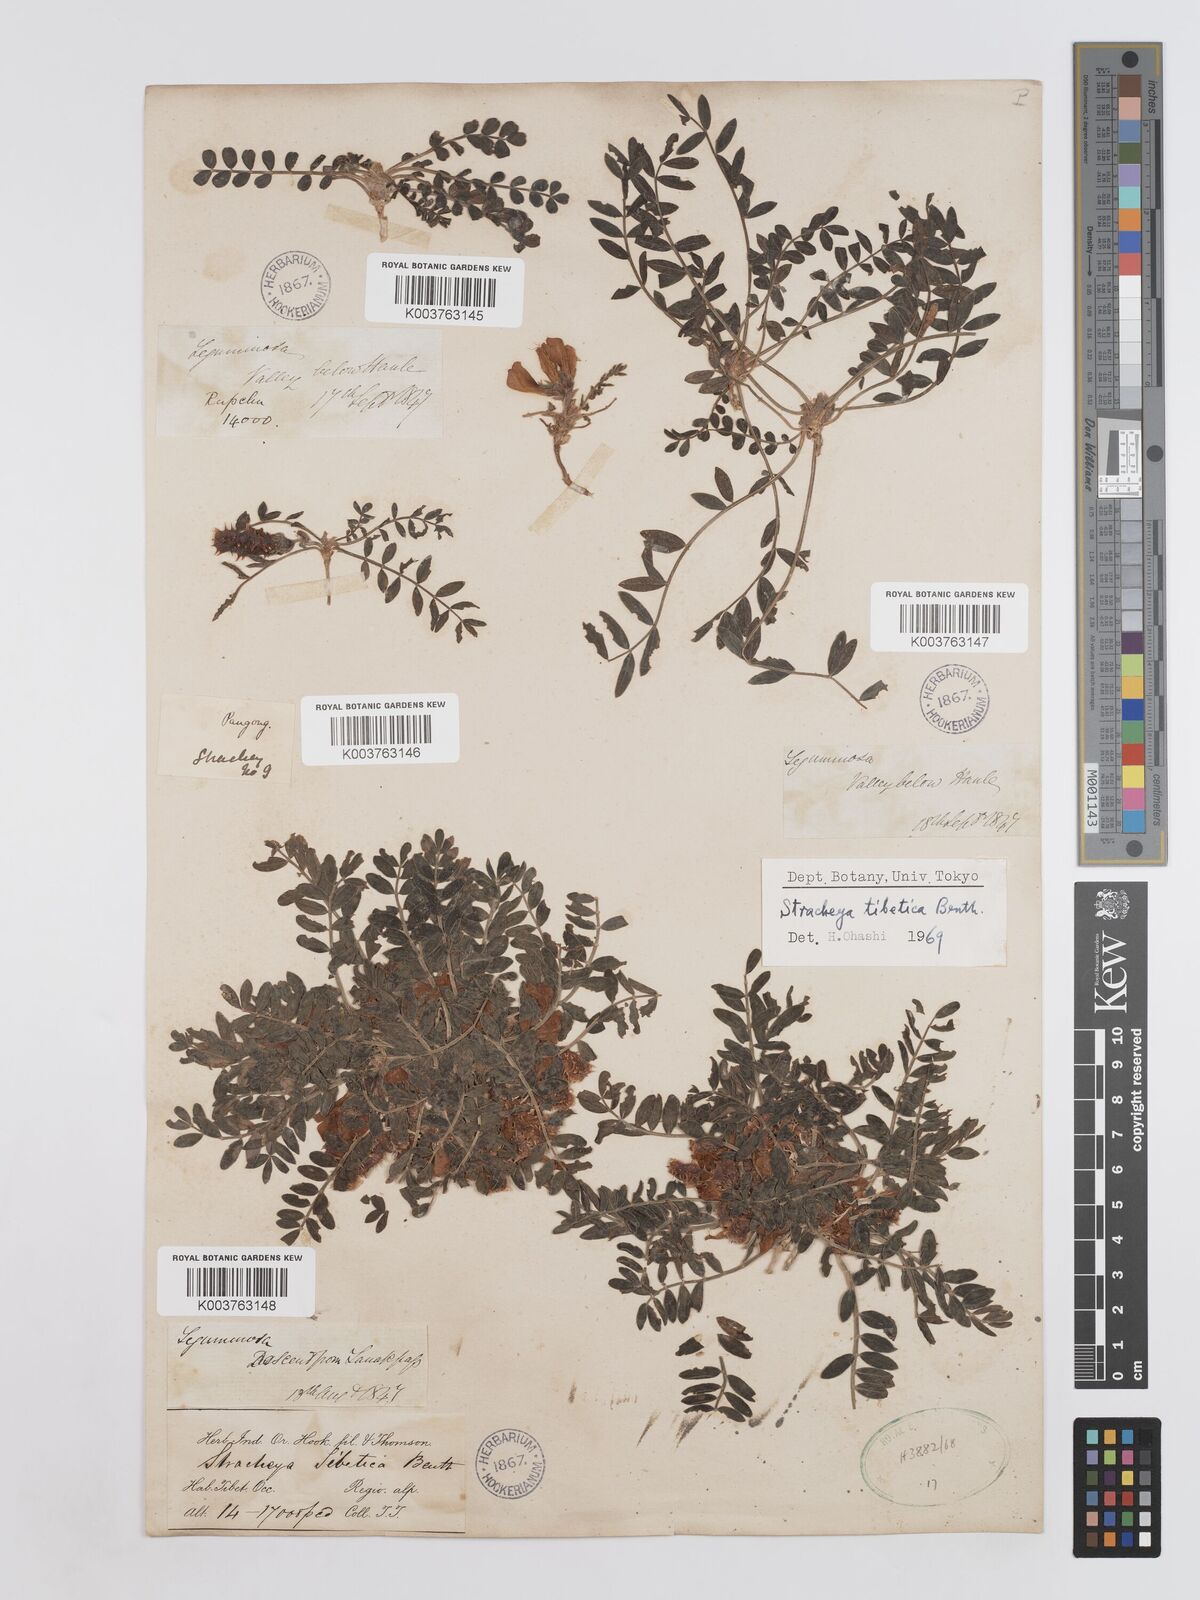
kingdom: Plantae
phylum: Tracheophyta
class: Magnoliopsida
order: Fabales
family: Fabaceae
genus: Hedysarum
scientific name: Hedysarum tibeticum
